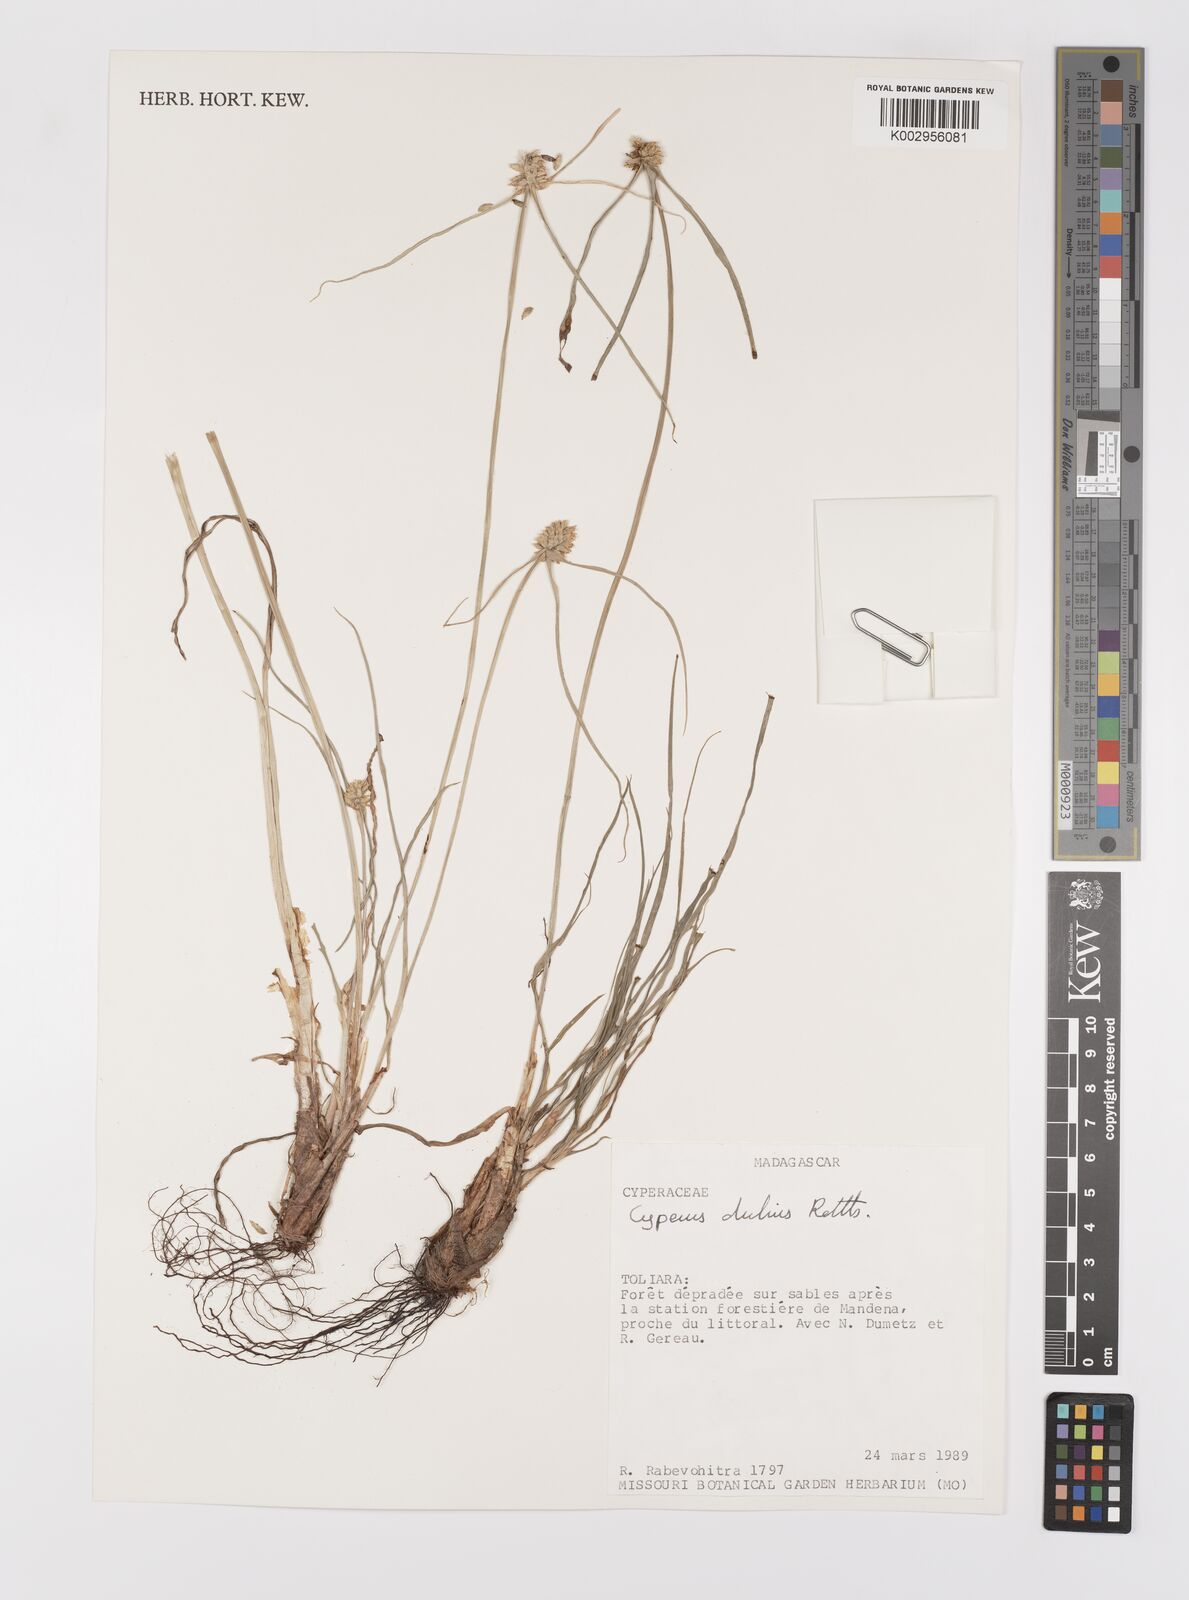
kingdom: Plantae
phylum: Tracheophyta
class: Liliopsida
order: Poales
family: Cyperaceae
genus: Cyperus
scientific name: Cyperus dubius
